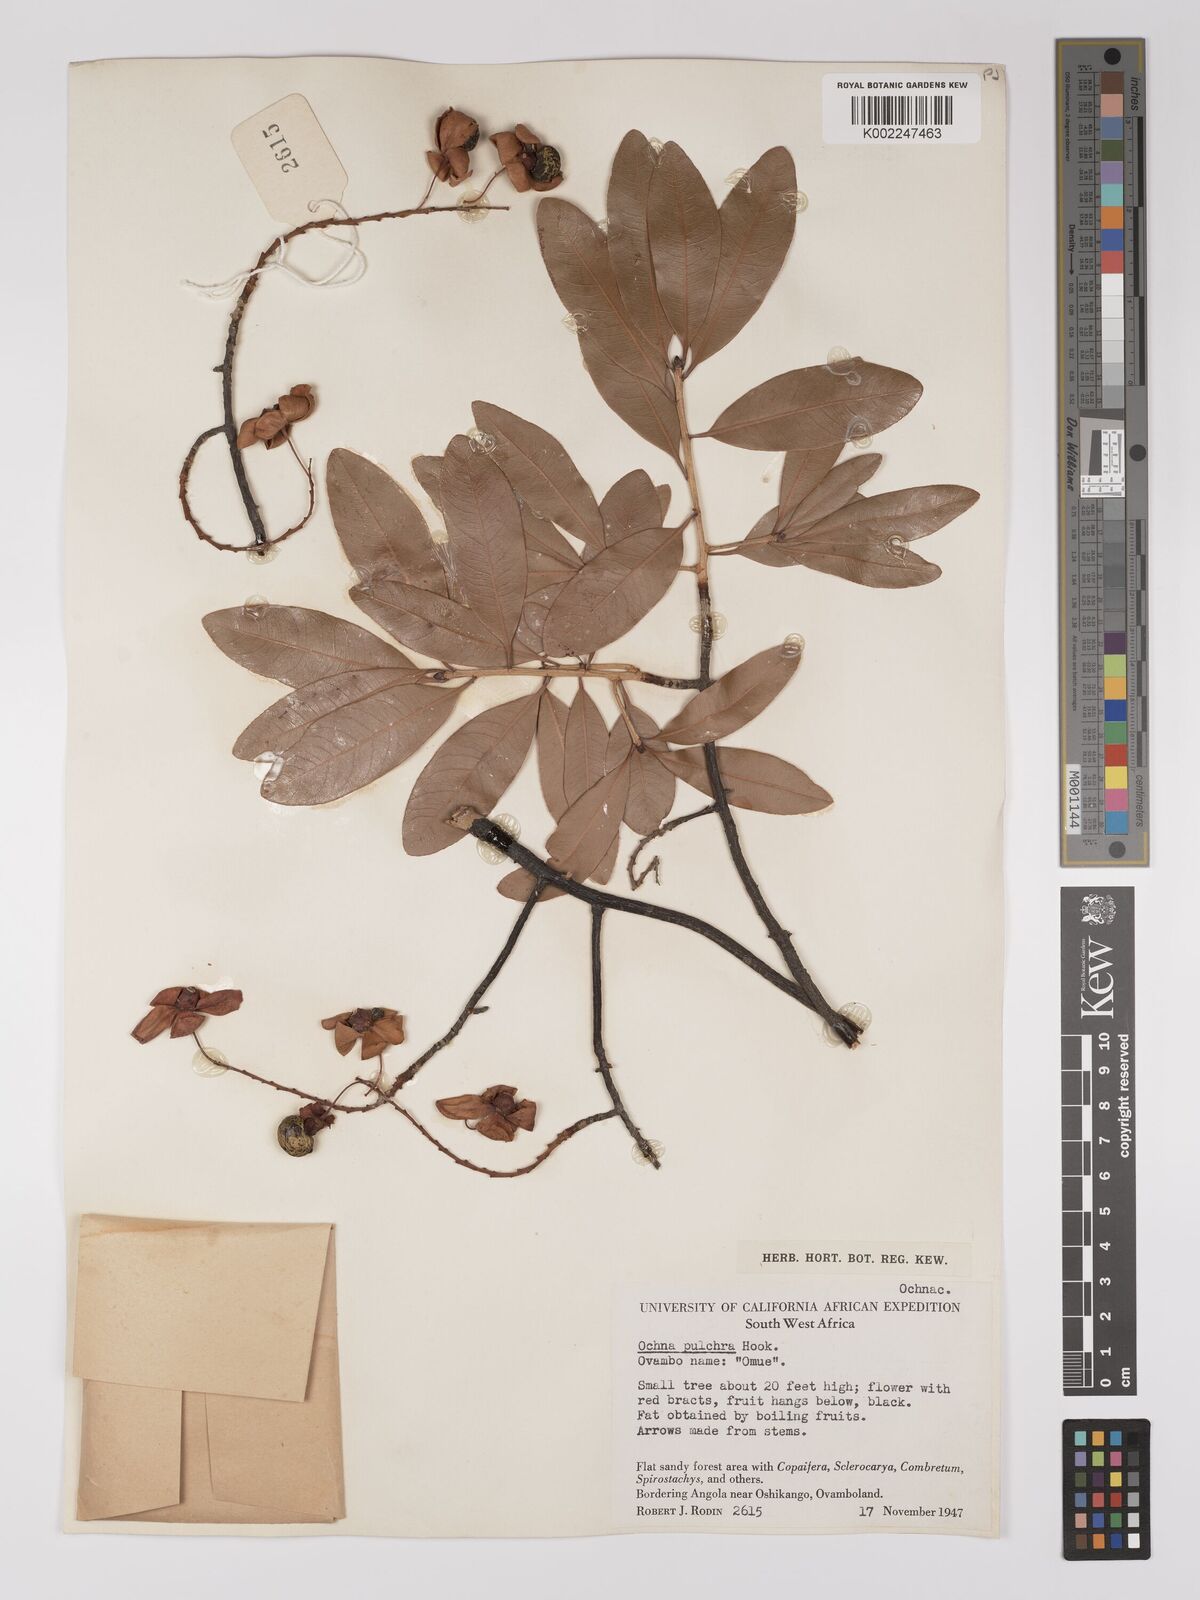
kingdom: Plantae
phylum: Tracheophyta
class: Magnoliopsida
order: Malpighiales
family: Ochnaceae
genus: Ochna
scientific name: Ochna pulchra
